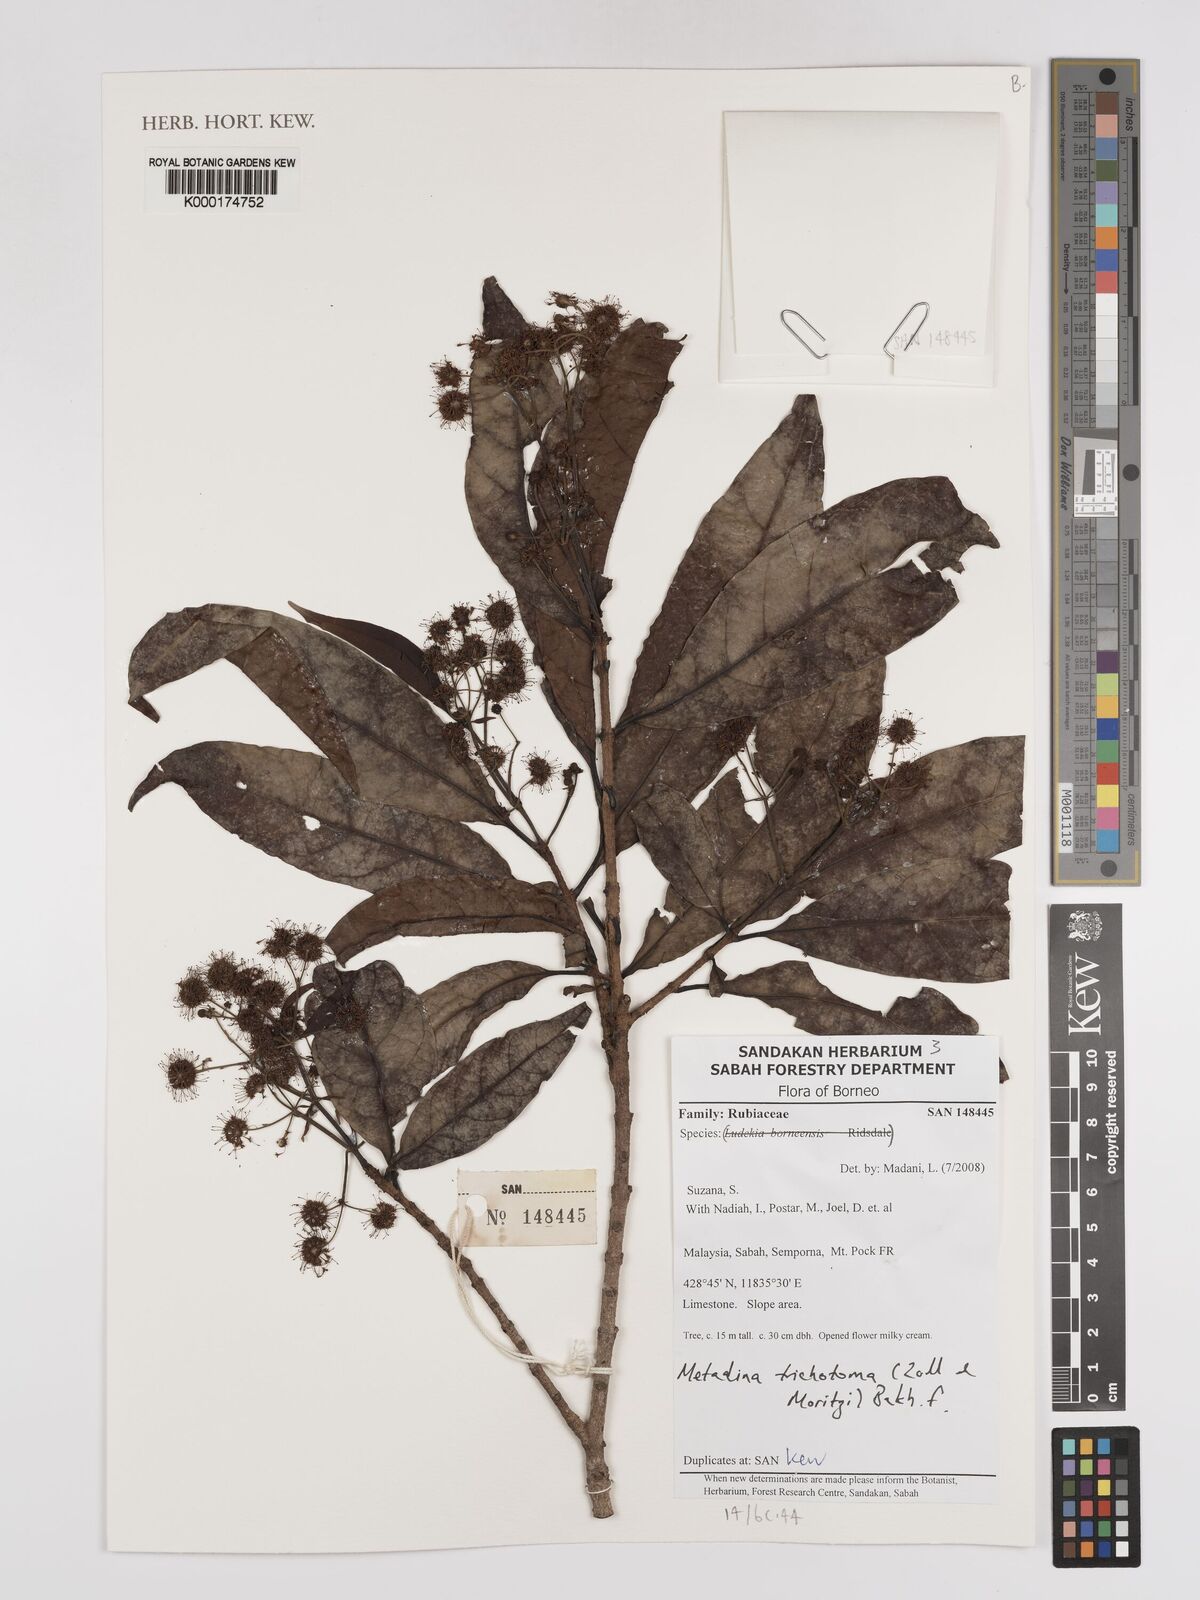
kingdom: Plantae
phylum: Tracheophyta
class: Magnoliopsida
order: Gentianales
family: Rubiaceae
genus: Adina
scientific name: Adina trichotoma
